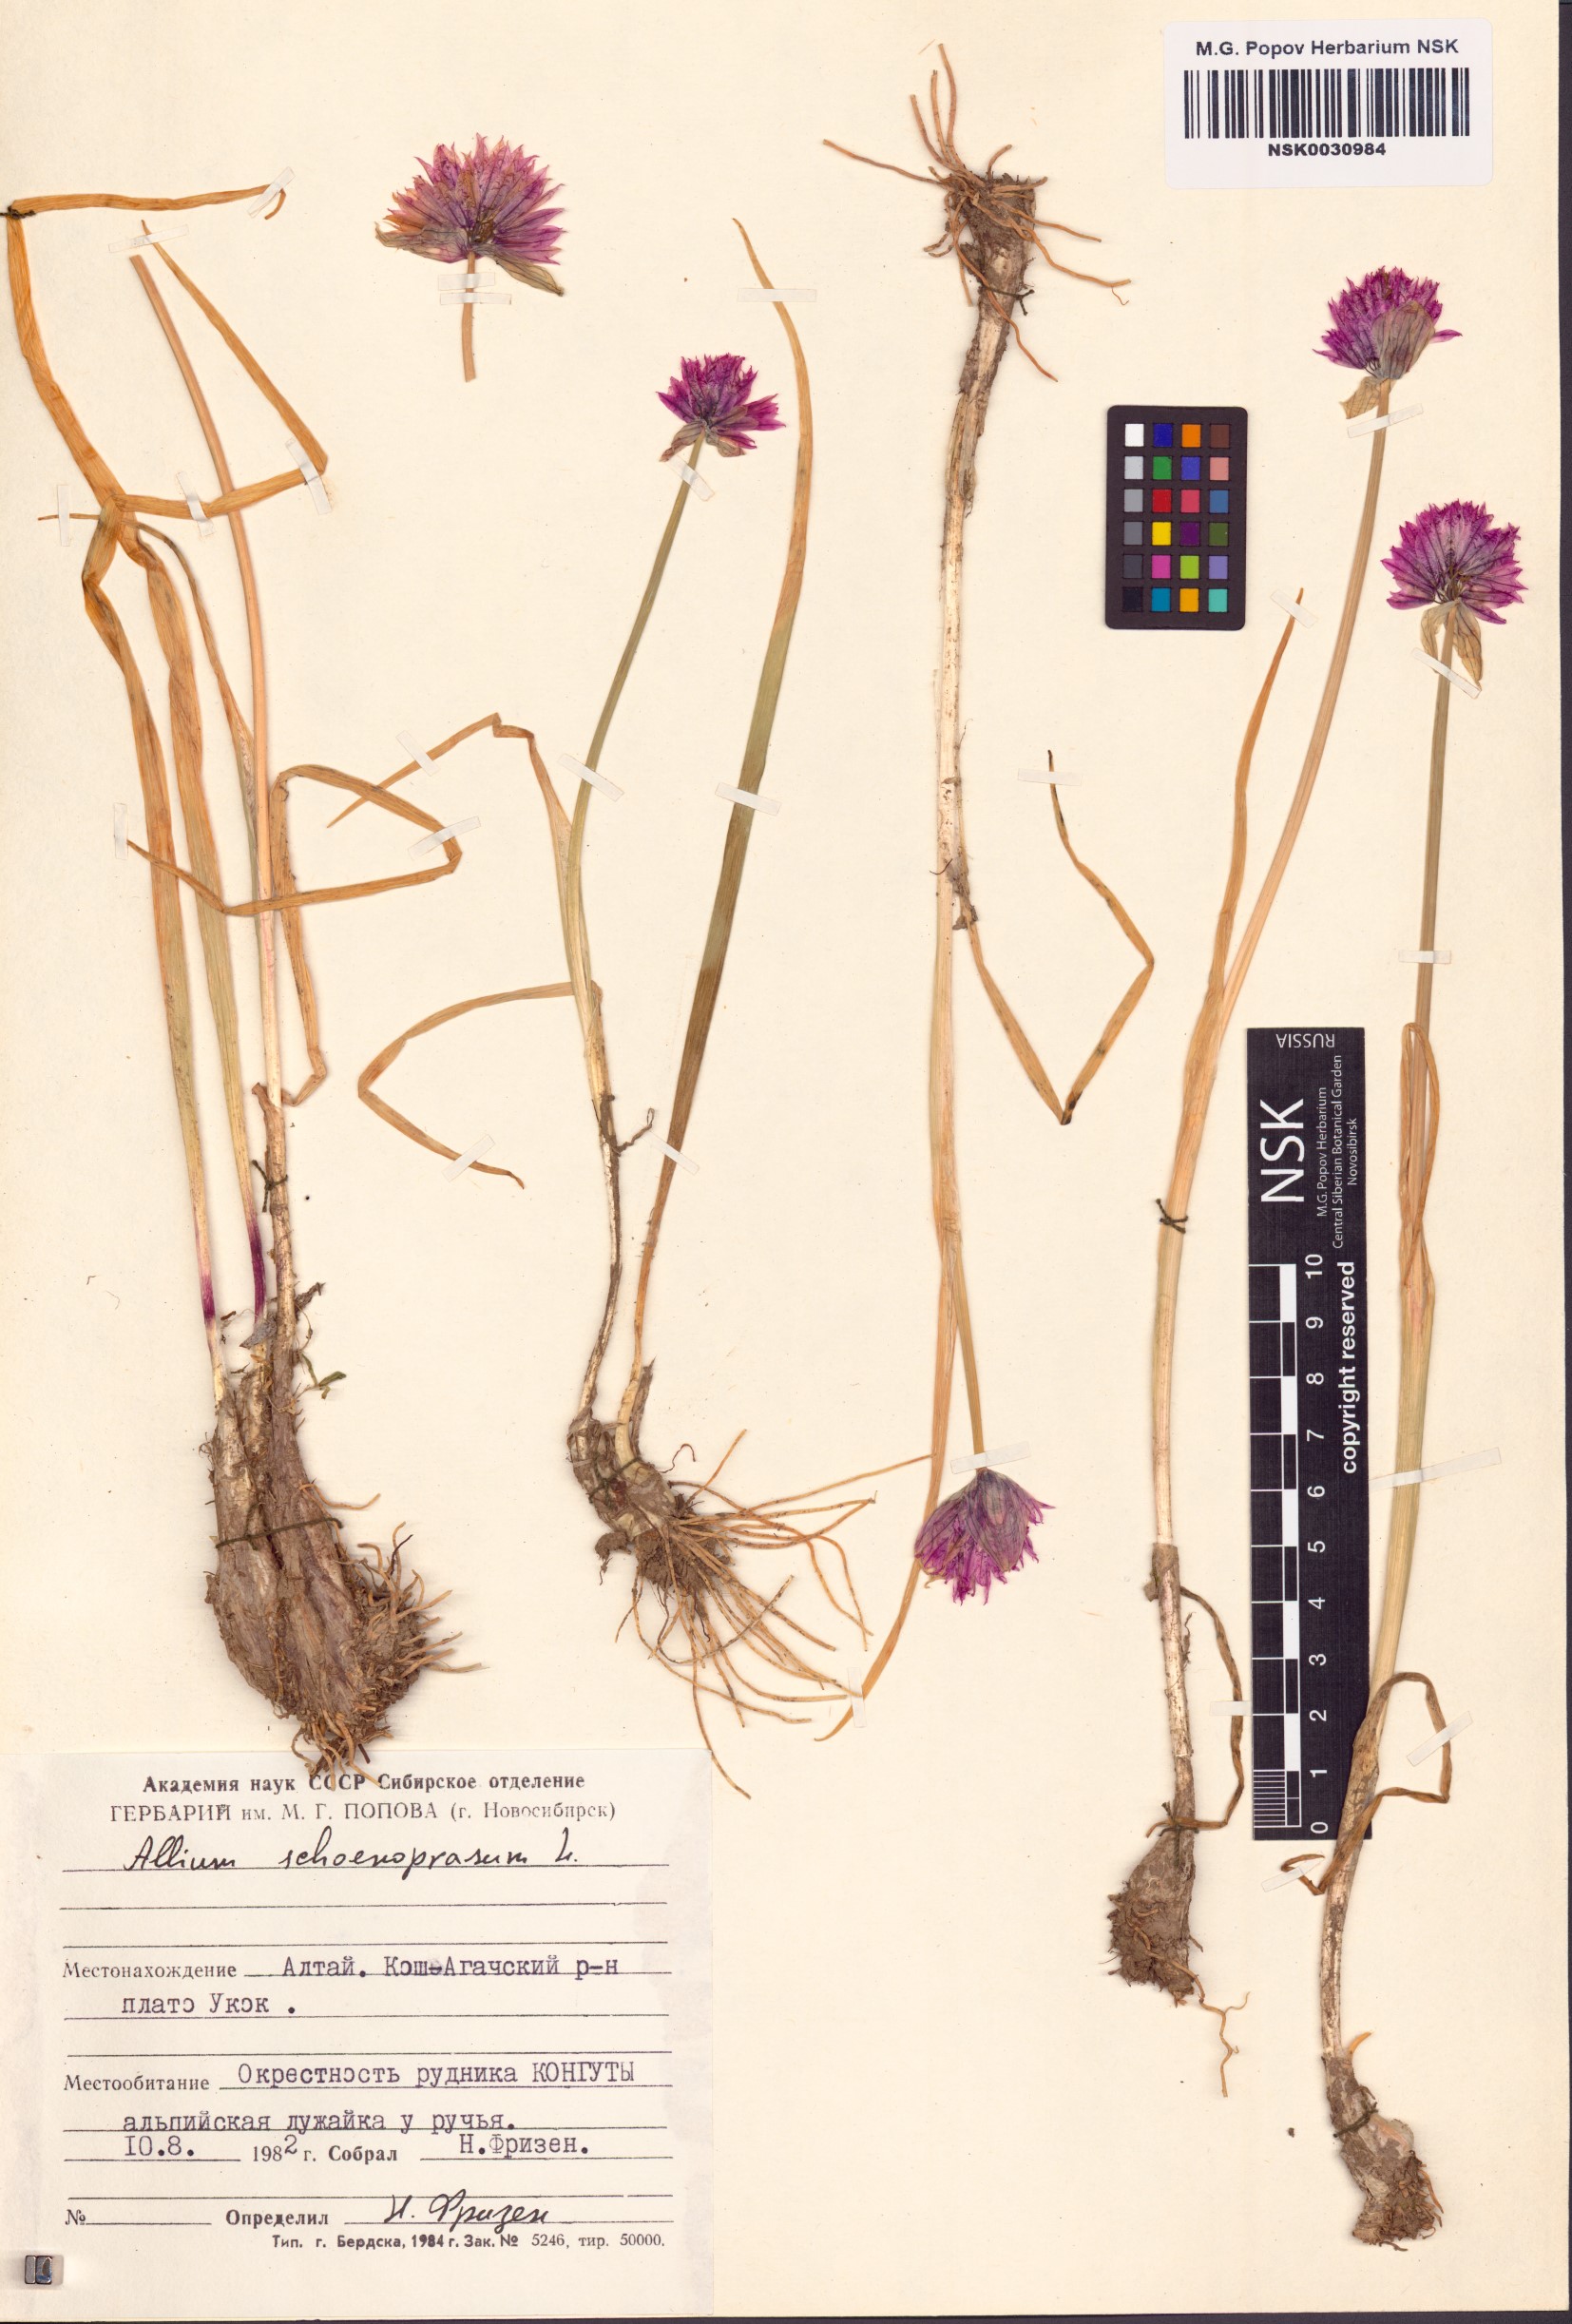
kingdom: Plantae
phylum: Tracheophyta
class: Liliopsida
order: Asparagales
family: Amaryllidaceae
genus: Allium
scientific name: Allium schoenoprasum
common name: Chives
